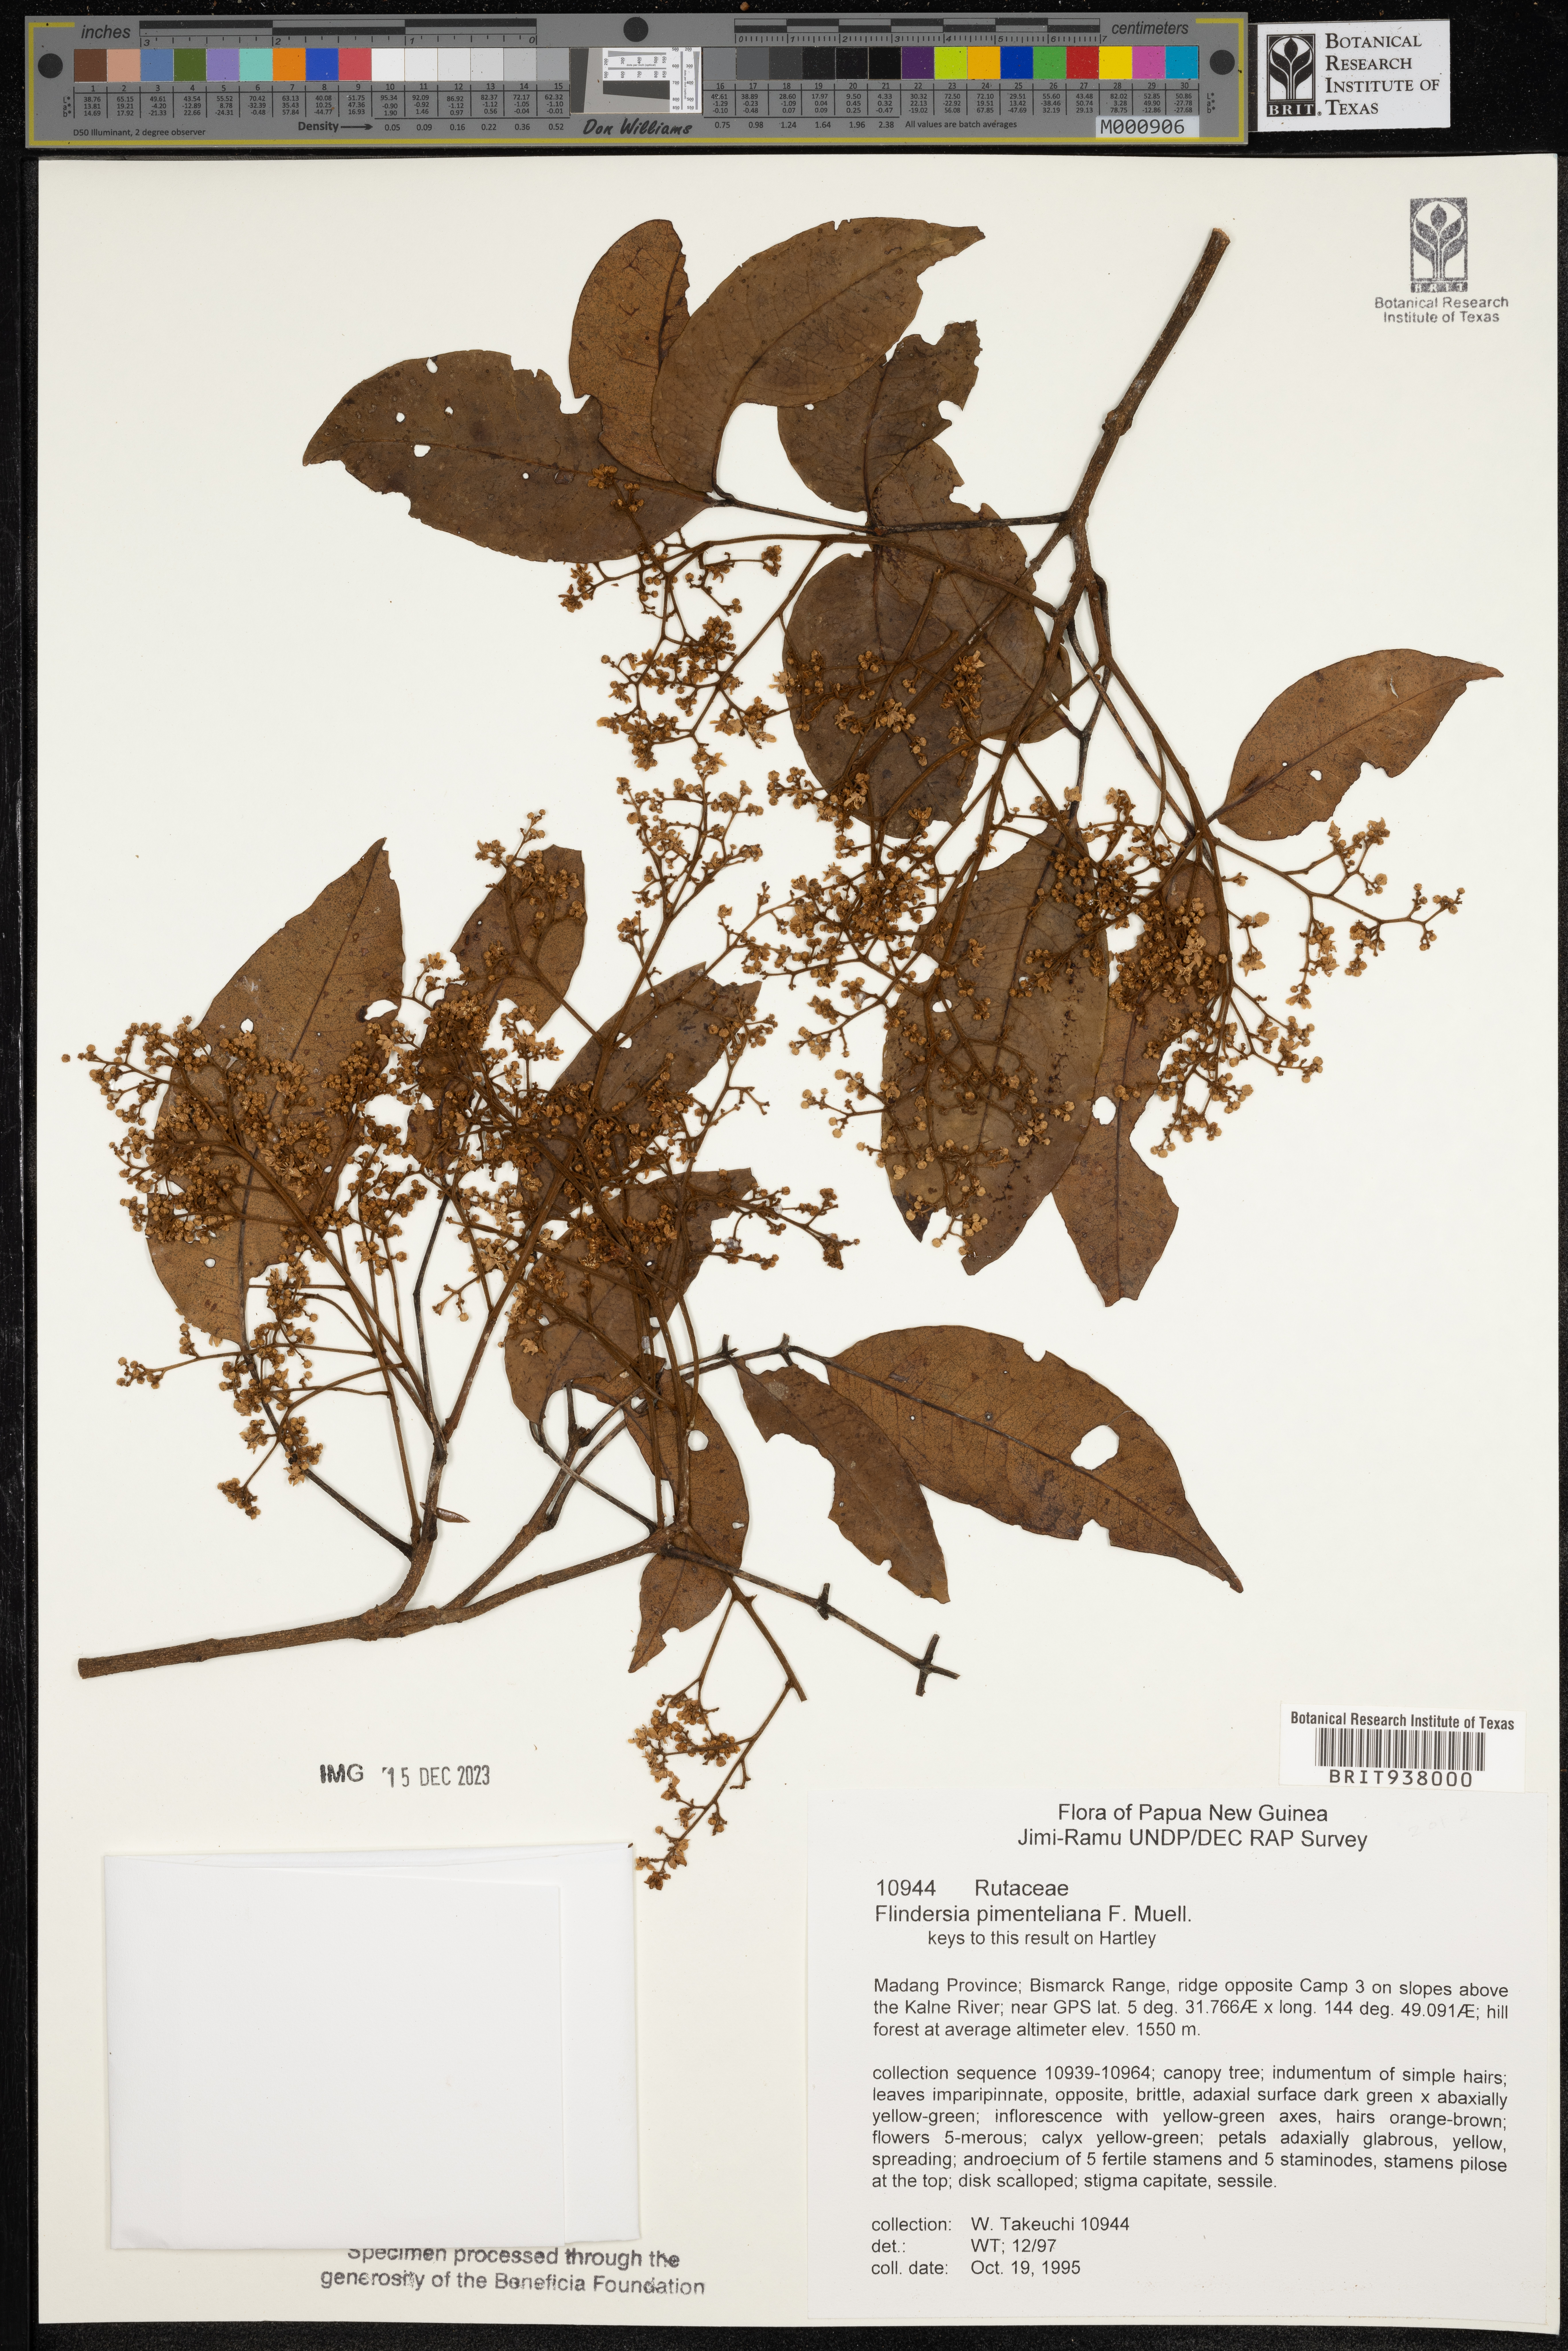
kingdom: Plantae
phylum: Tracheophyta
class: Magnoliopsida
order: Sapindales
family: Rutaceae
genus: Flindersia
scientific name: Flindersia
